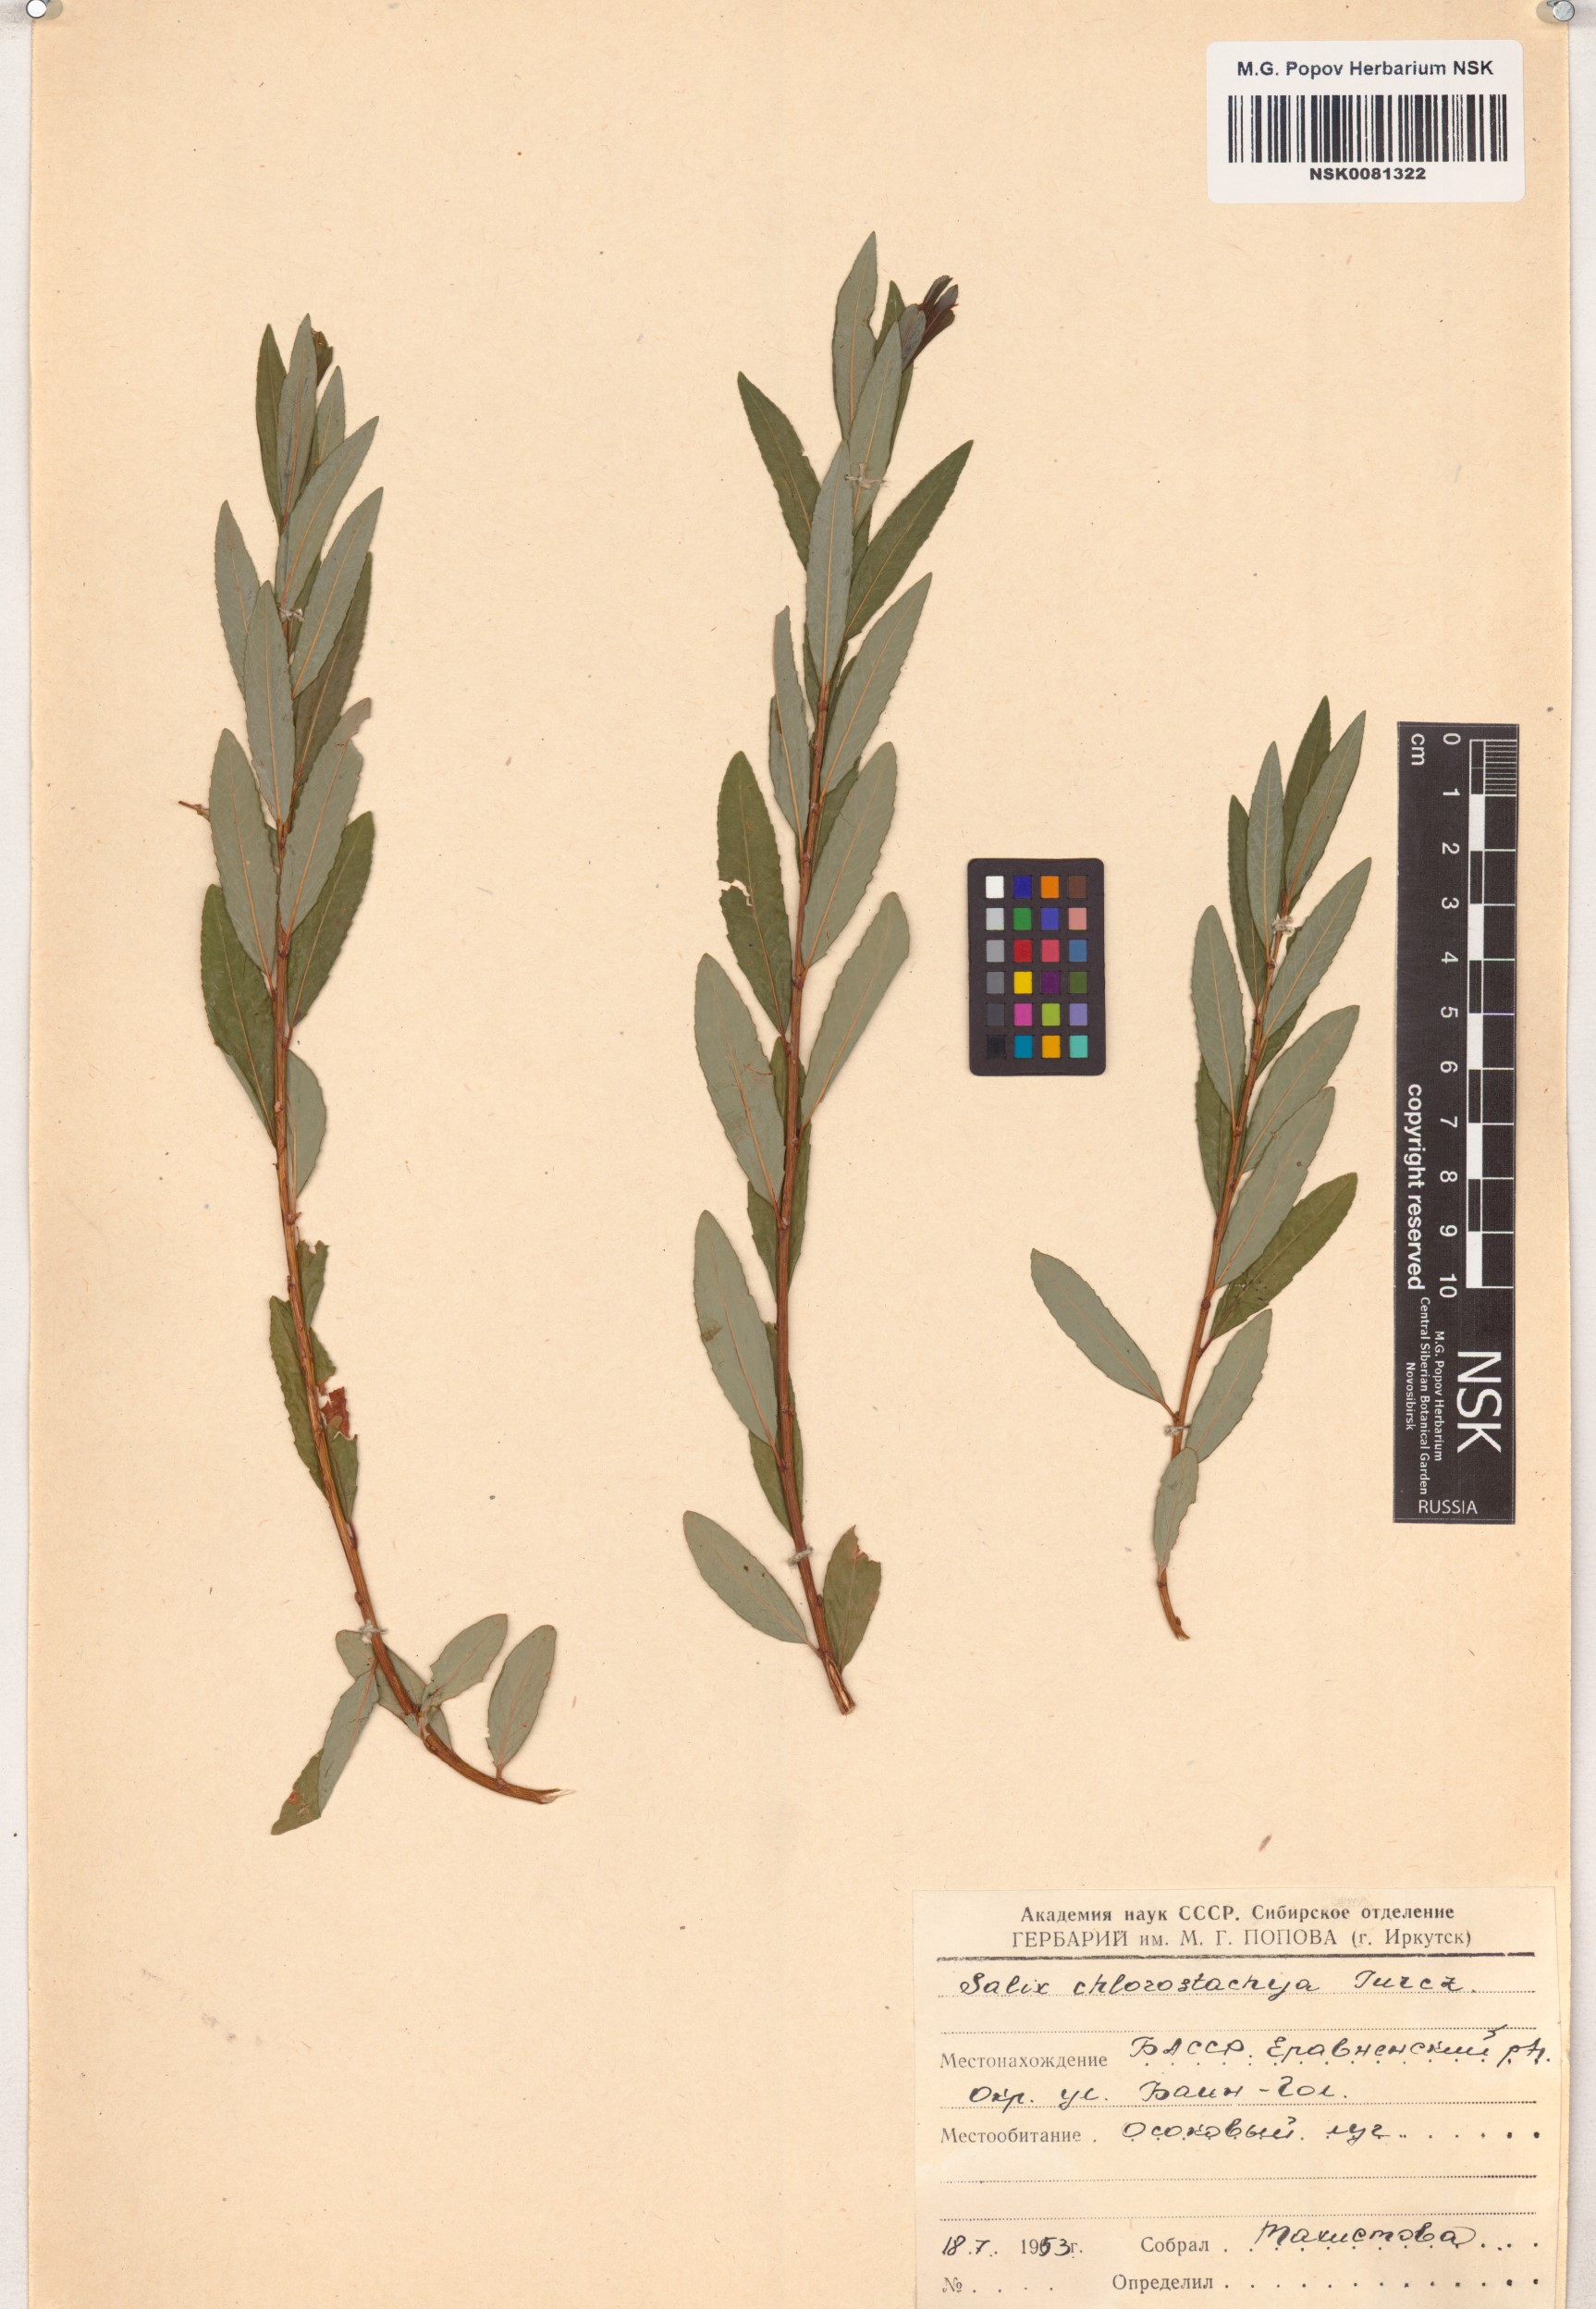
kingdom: Plantae
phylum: Tracheophyta
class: Magnoliopsida
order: Malpighiales
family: Salicaceae
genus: Salix
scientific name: Salix rhamnifolia
